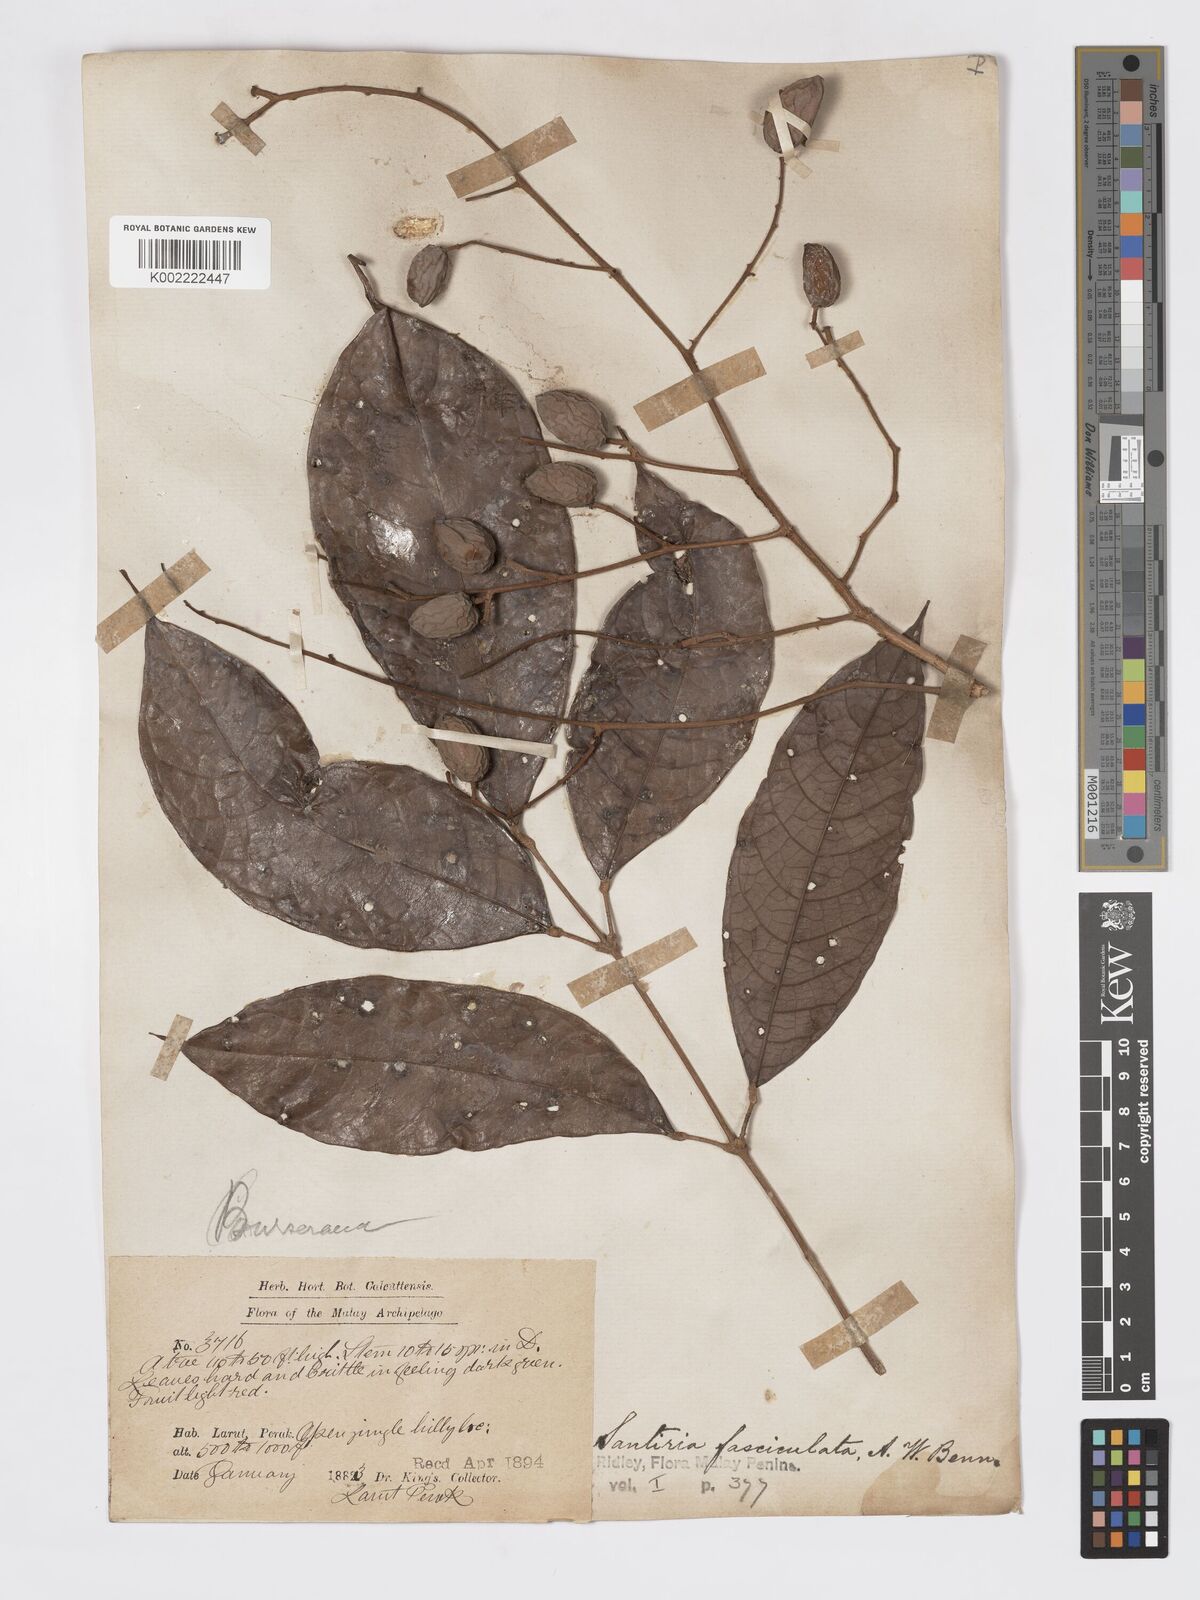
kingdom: Plantae
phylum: Tracheophyta
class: Magnoliopsida
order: Sapindales
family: Burseraceae
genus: Dacryodes
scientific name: Dacryodes rugosa
